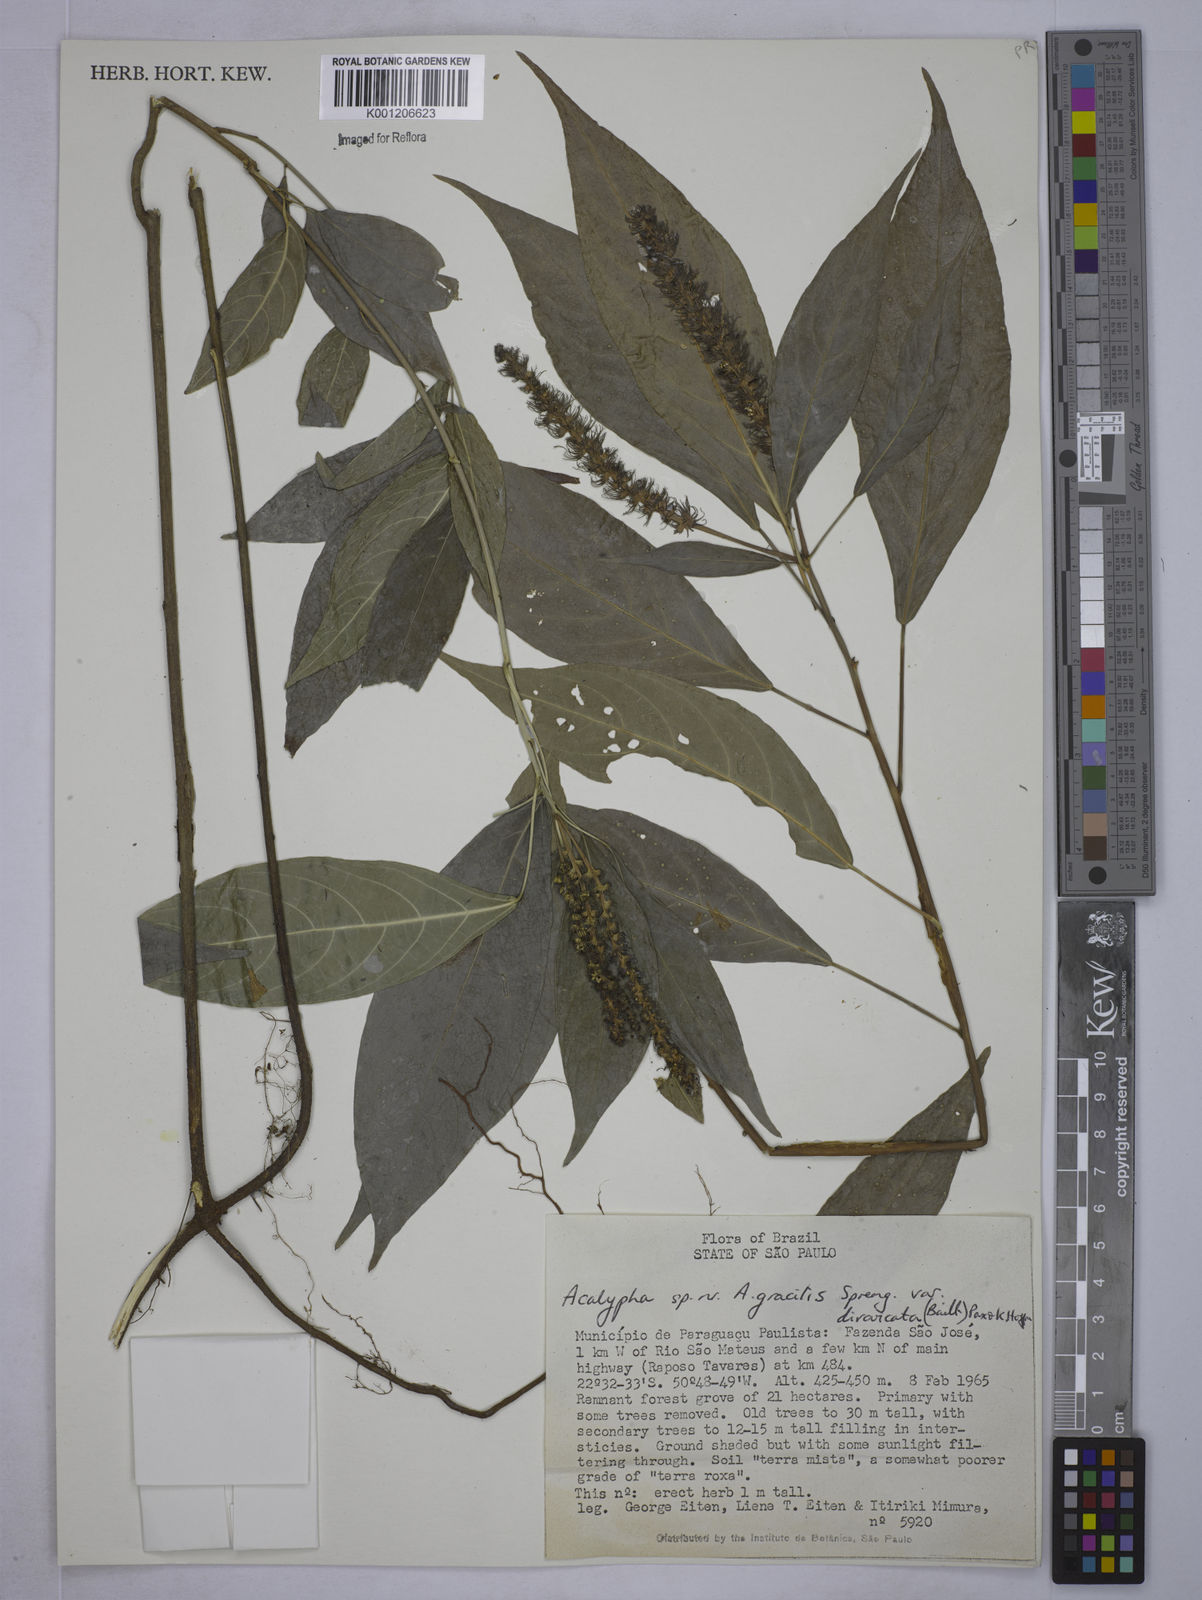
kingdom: Plantae
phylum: Tracheophyta
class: Magnoliopsida
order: Malpighiales
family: Euphorbiaceae
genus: Acalypha
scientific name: Acalypha gracilis
